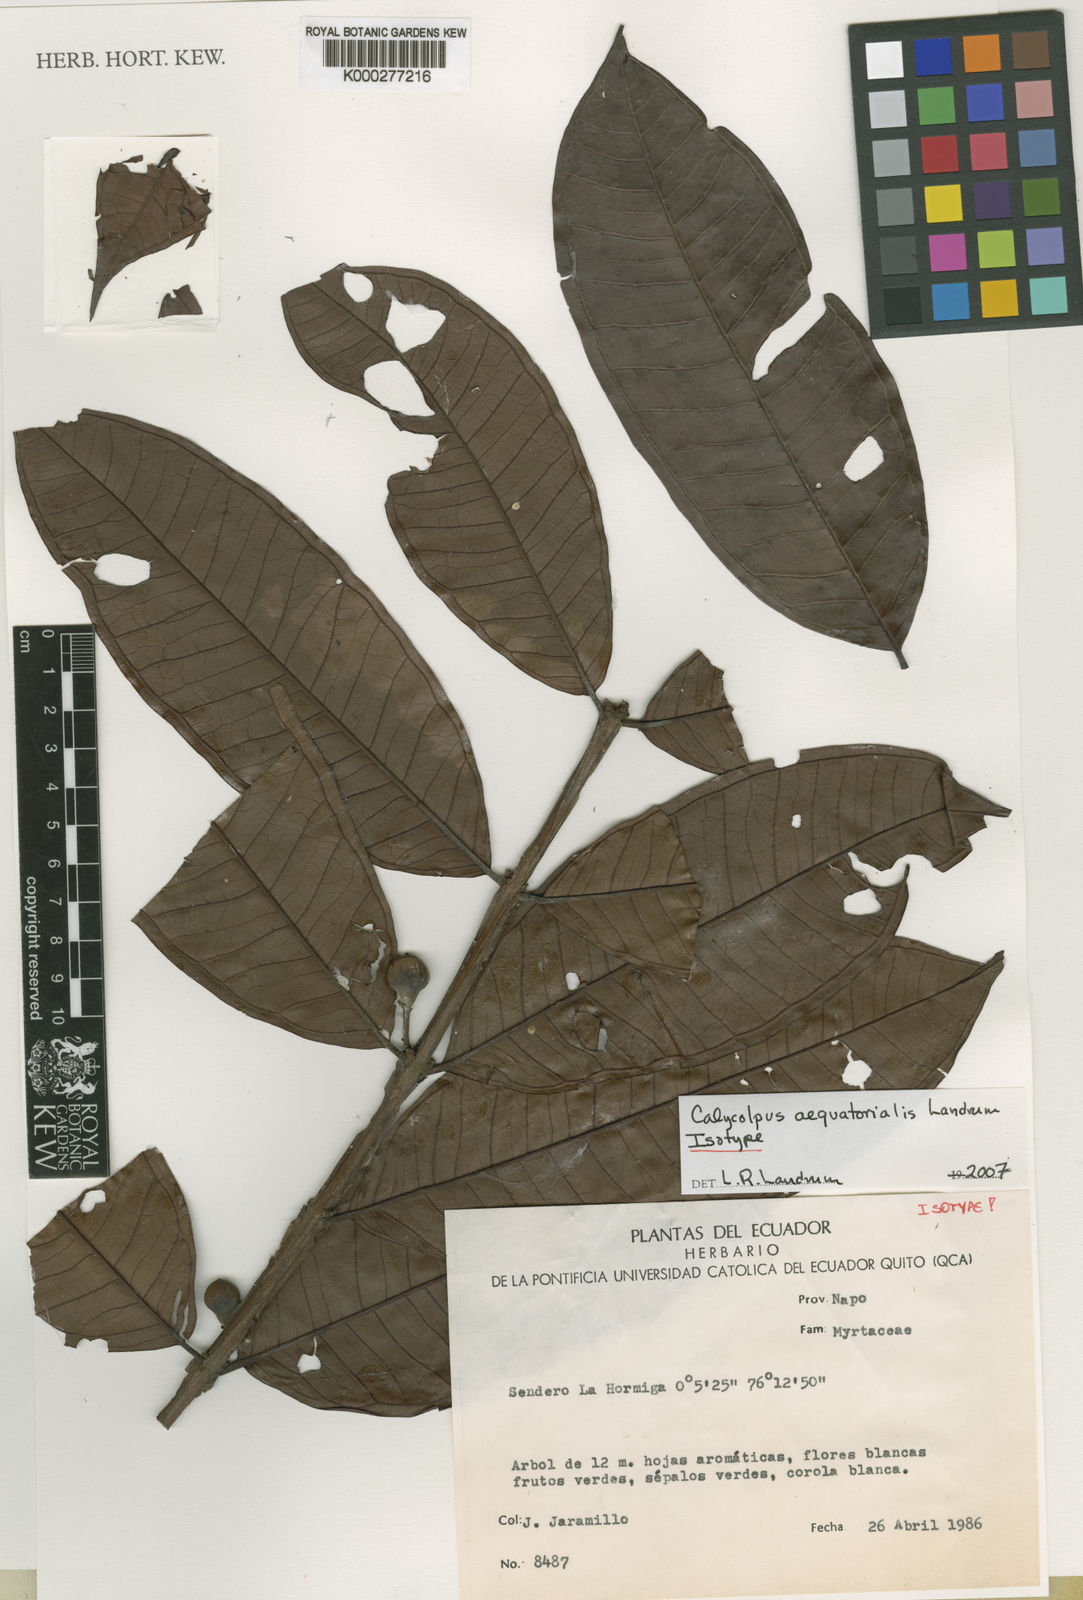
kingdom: Plantae
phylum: Tracheophyta
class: Magnoliopsida
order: Myrtales
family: Myrtaceae
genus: Calycolpus
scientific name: Calycolpus aequatorialis
